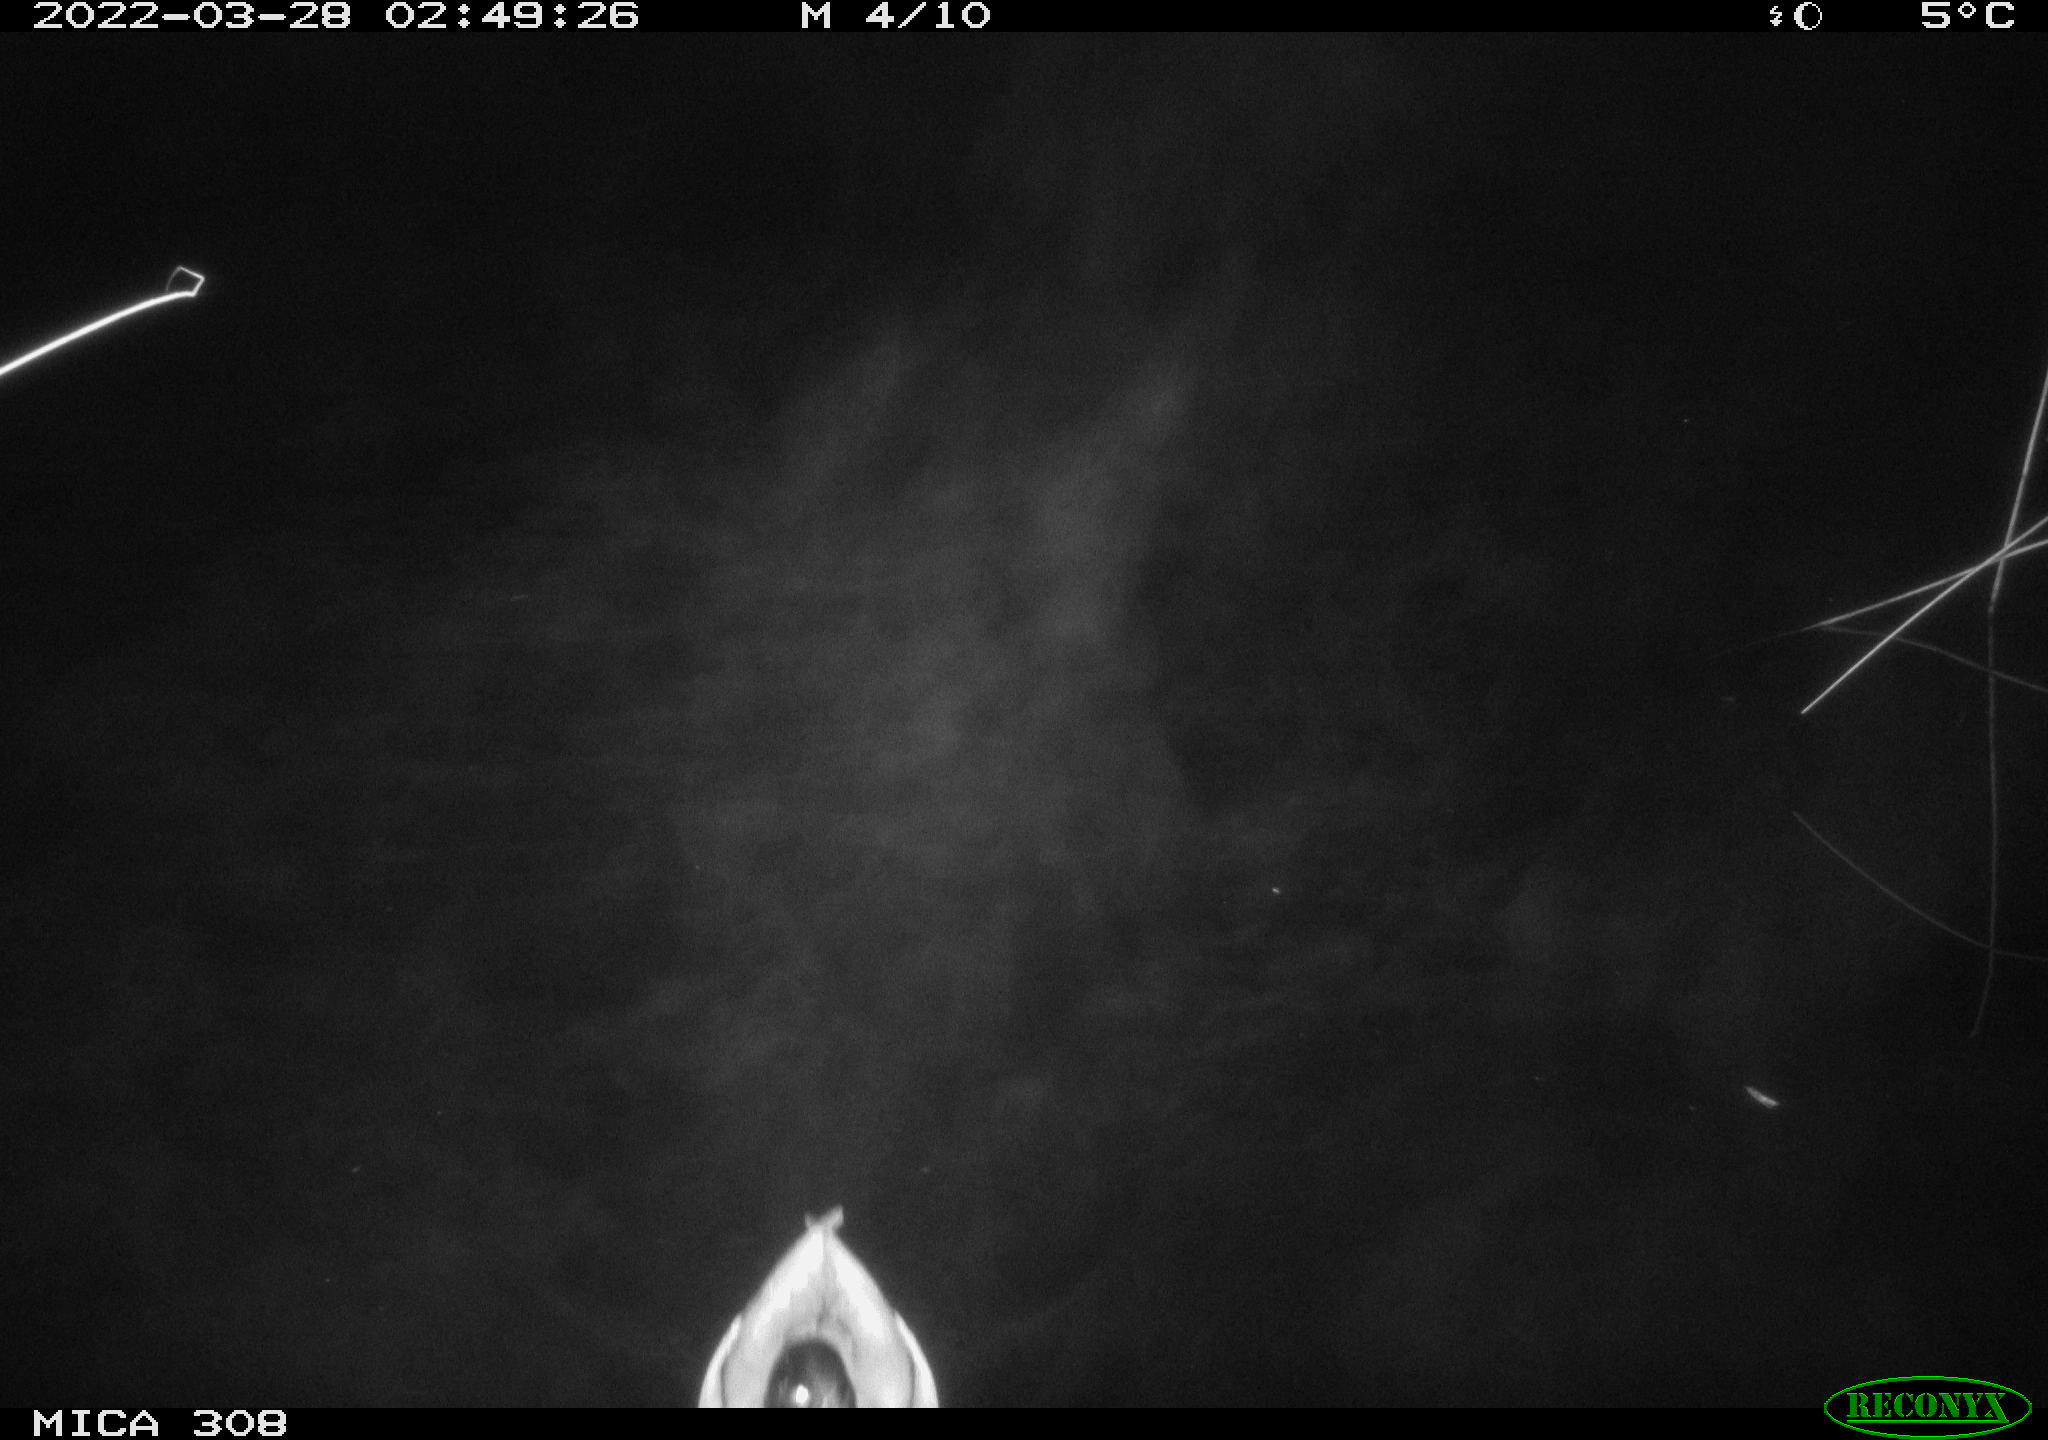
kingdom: Animalia
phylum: Chordata
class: Aves
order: Anseriformes
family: Anatidae
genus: Anas
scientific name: Anas platyrhynchos
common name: Mallard
